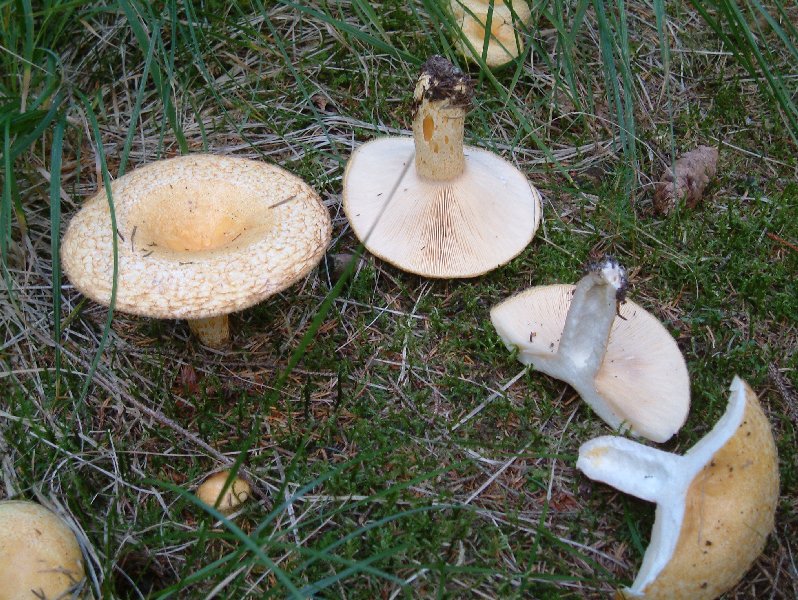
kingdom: Fungi
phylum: Basidiomycota
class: Agaricomycetes
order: Russulales
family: Russulaceae
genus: Lactarius
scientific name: Lactarius repraesentaneus
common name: prægtig mælkehat
